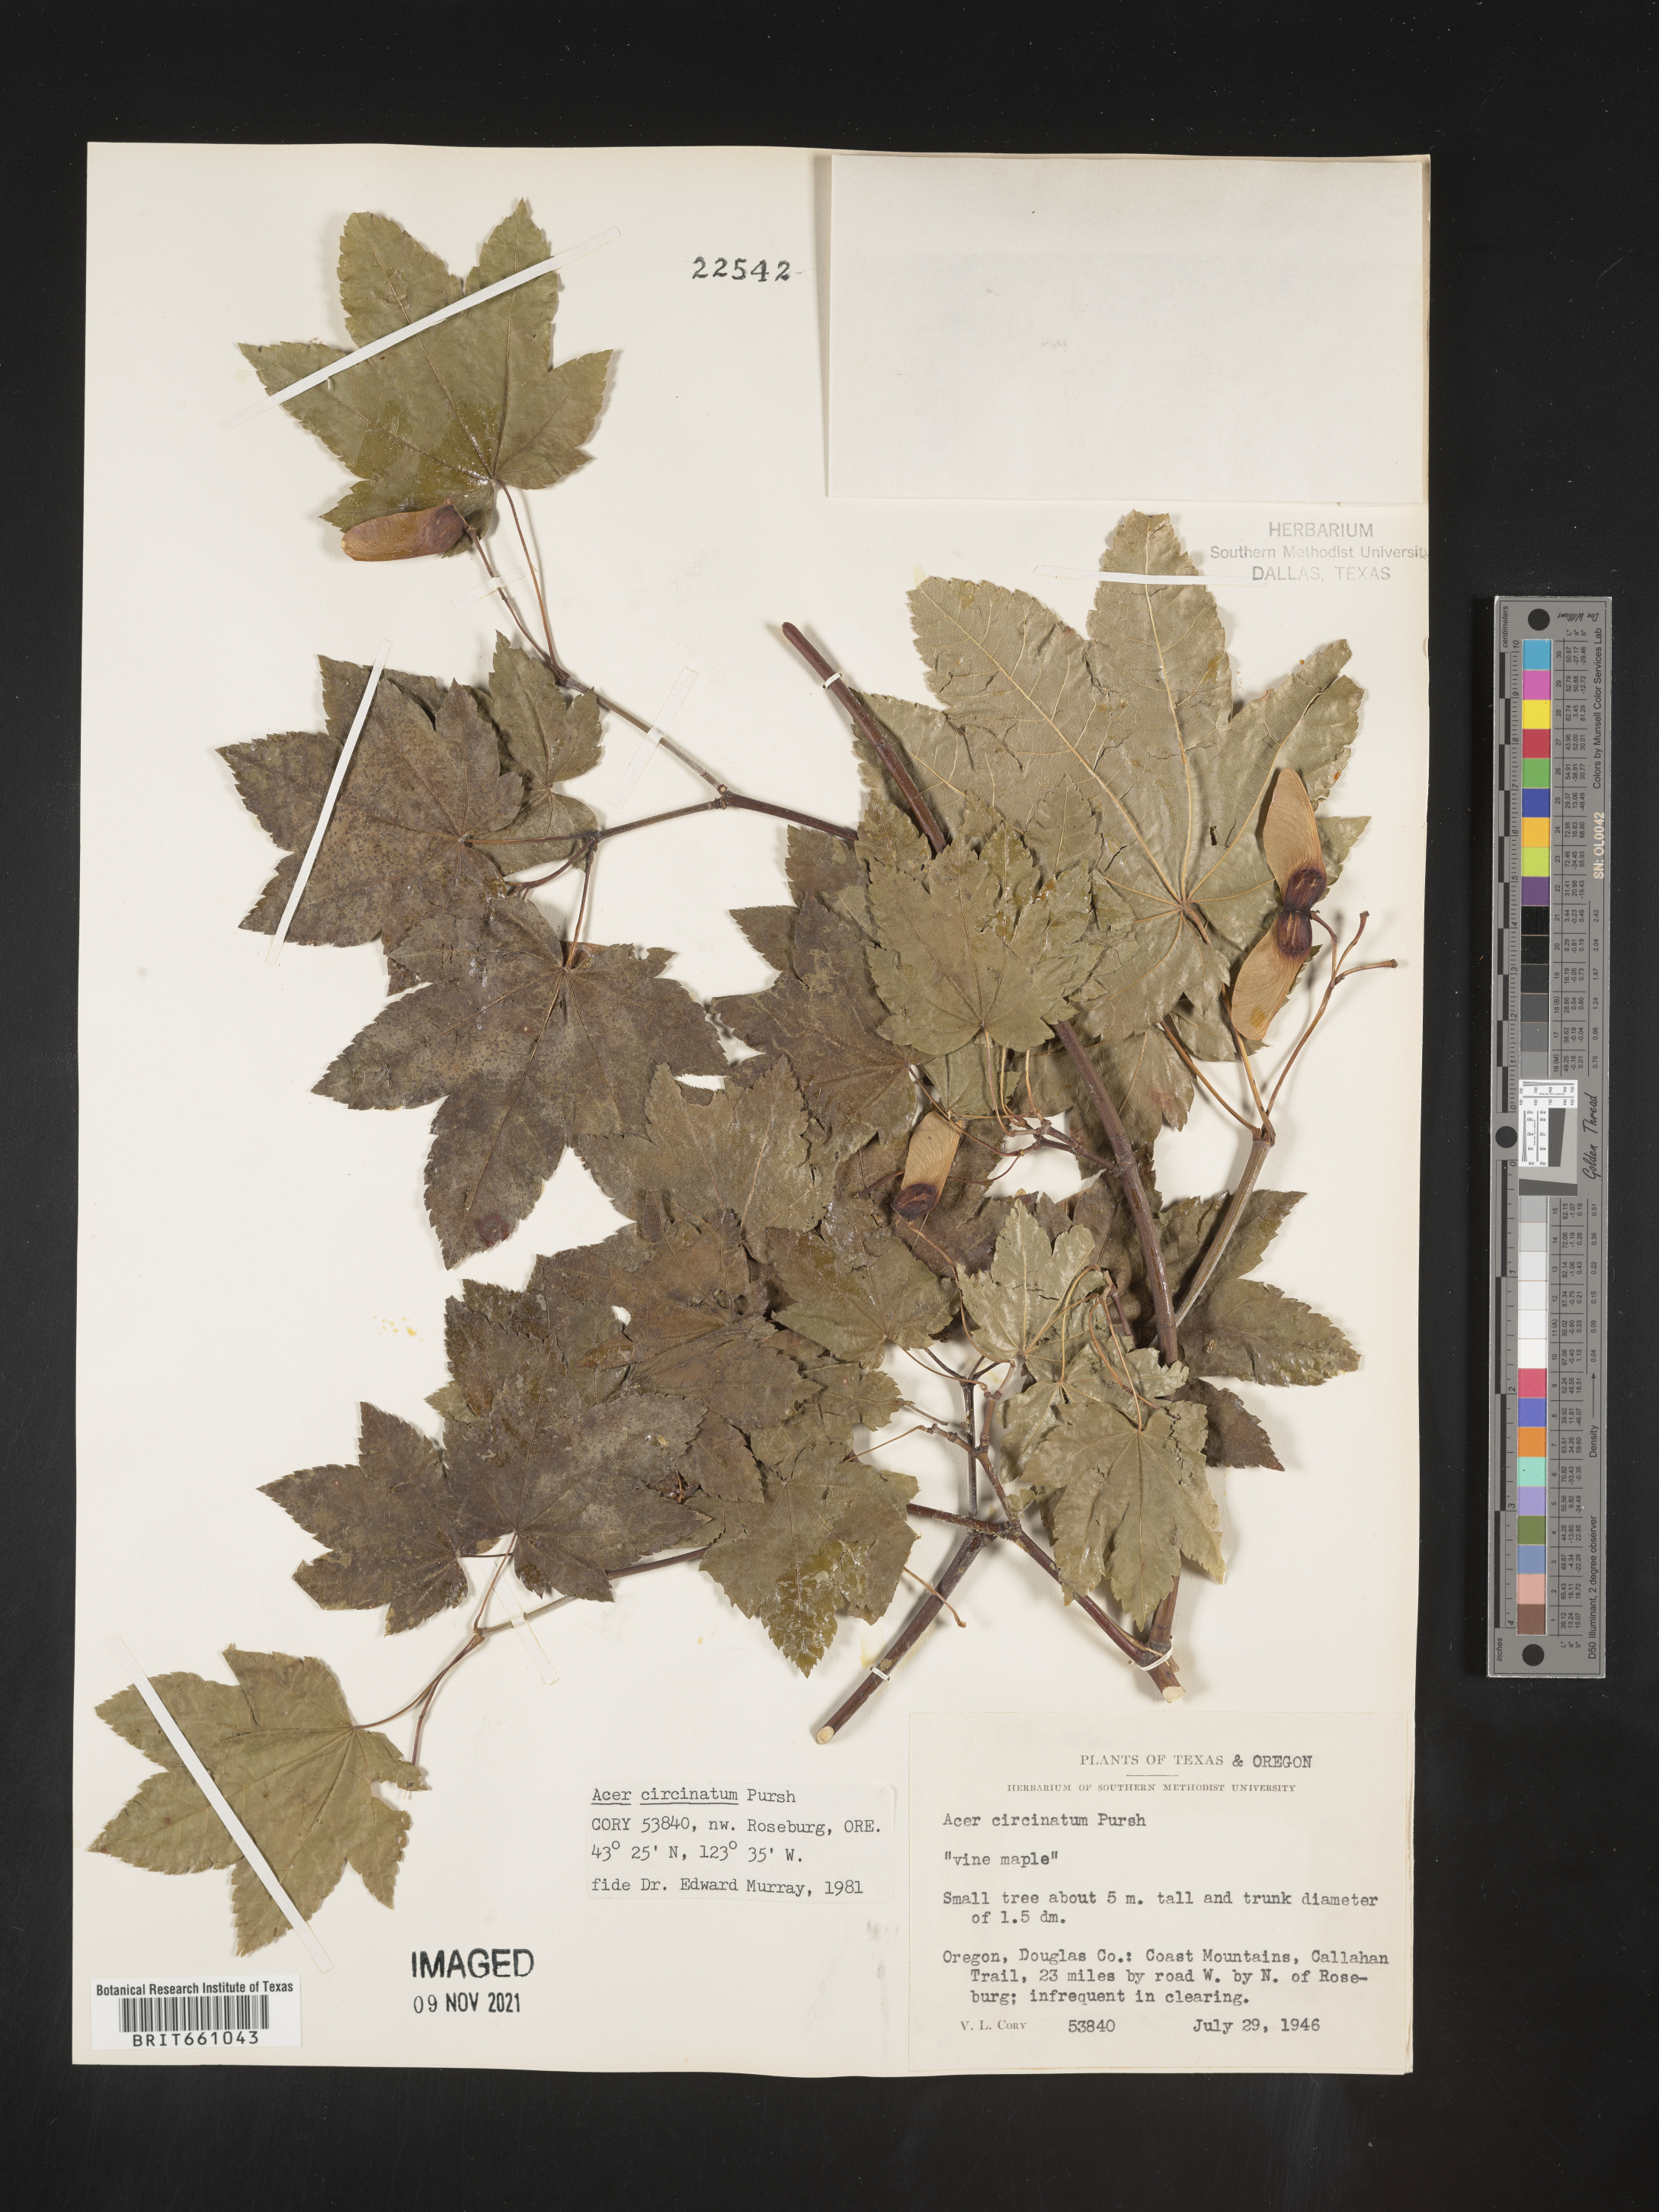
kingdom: Plantae
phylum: Tracheophyta
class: Magnoliopsida
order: Sapindales
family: Sapindaceae
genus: Acer
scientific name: Acer circinatum
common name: Vine maple
